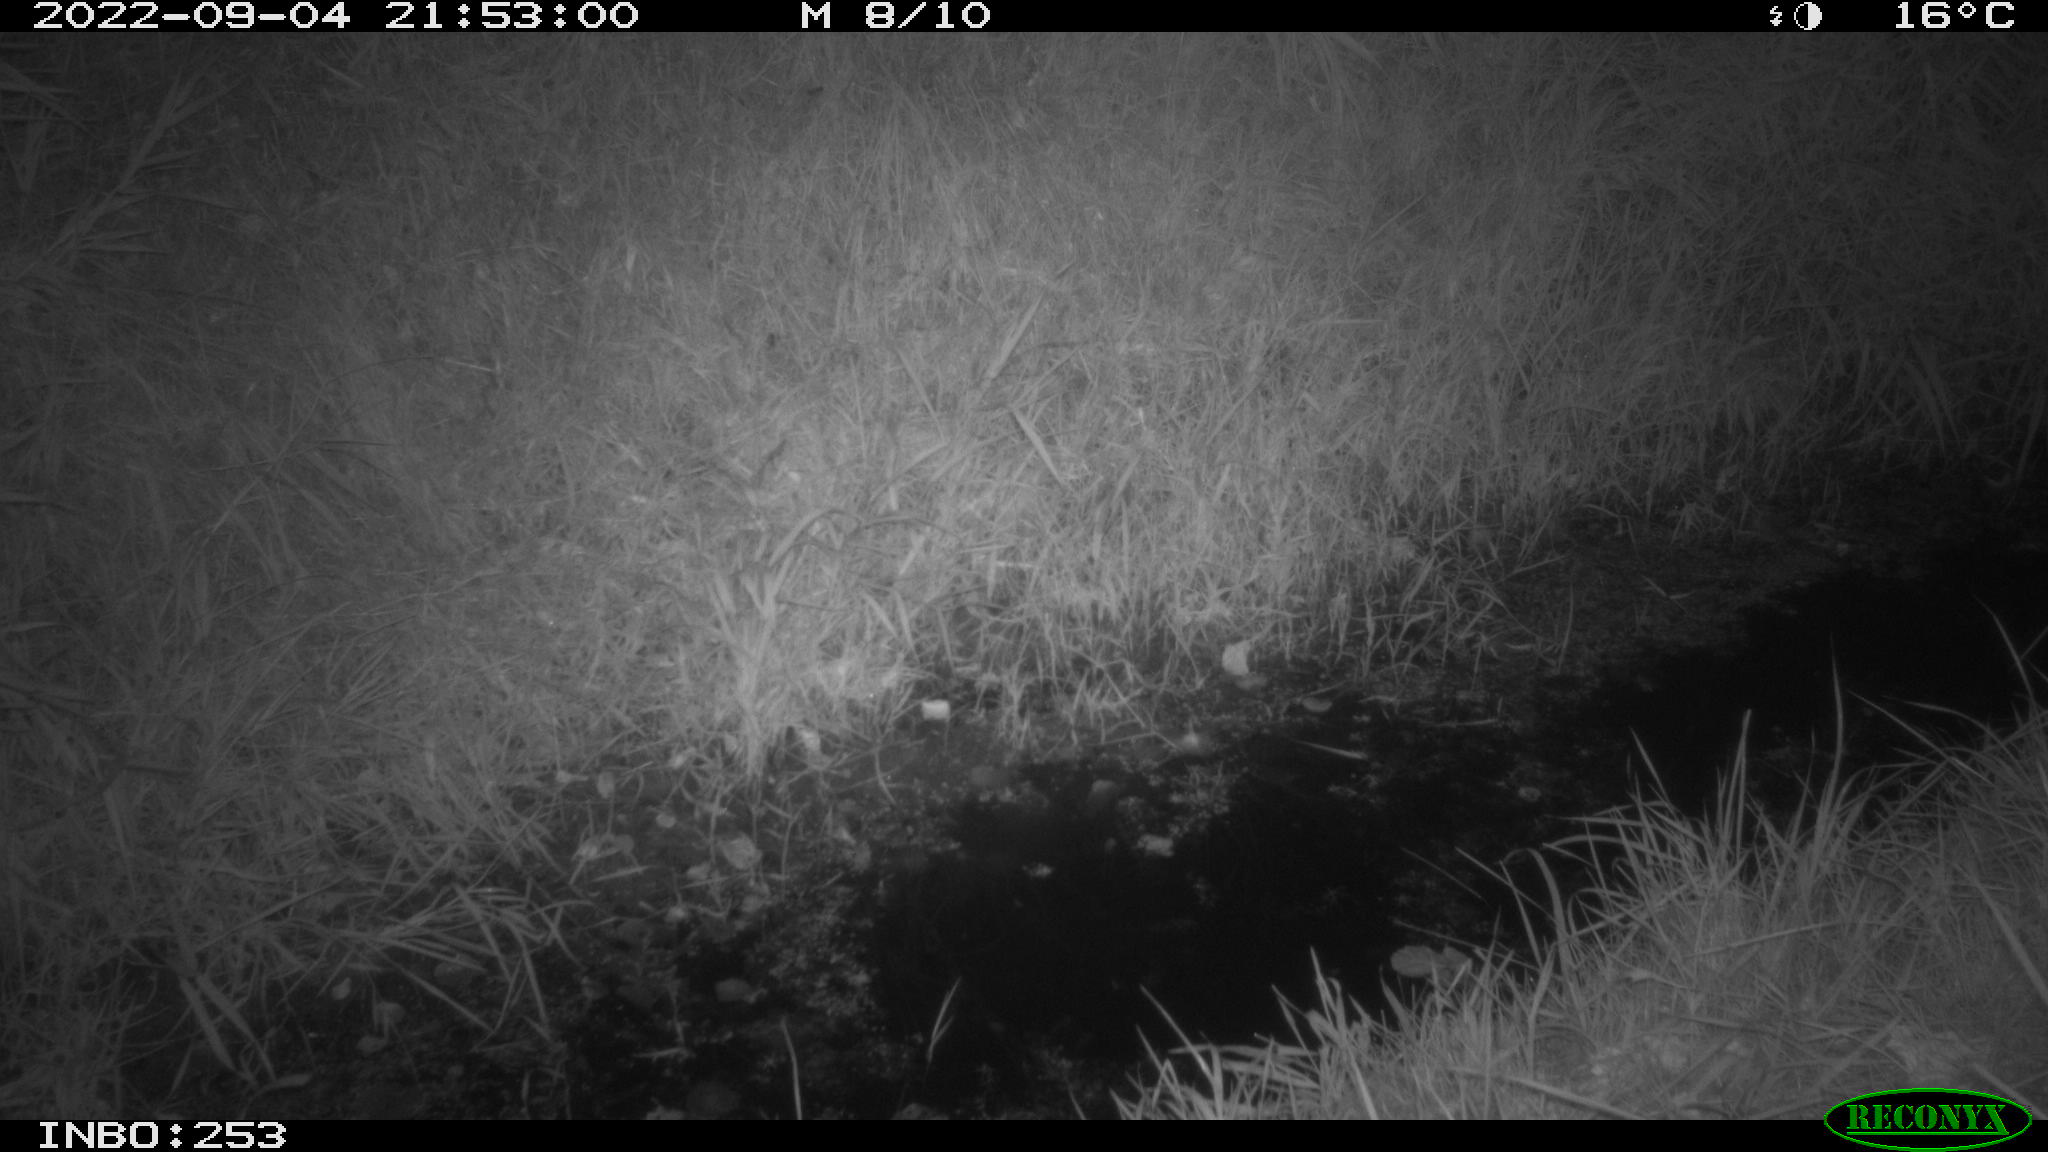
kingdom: Animalia
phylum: Chordata
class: Mammalia
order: Carnivora
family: Canidae
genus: Vulpes
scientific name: Vulpes vulpes
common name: Red fox
